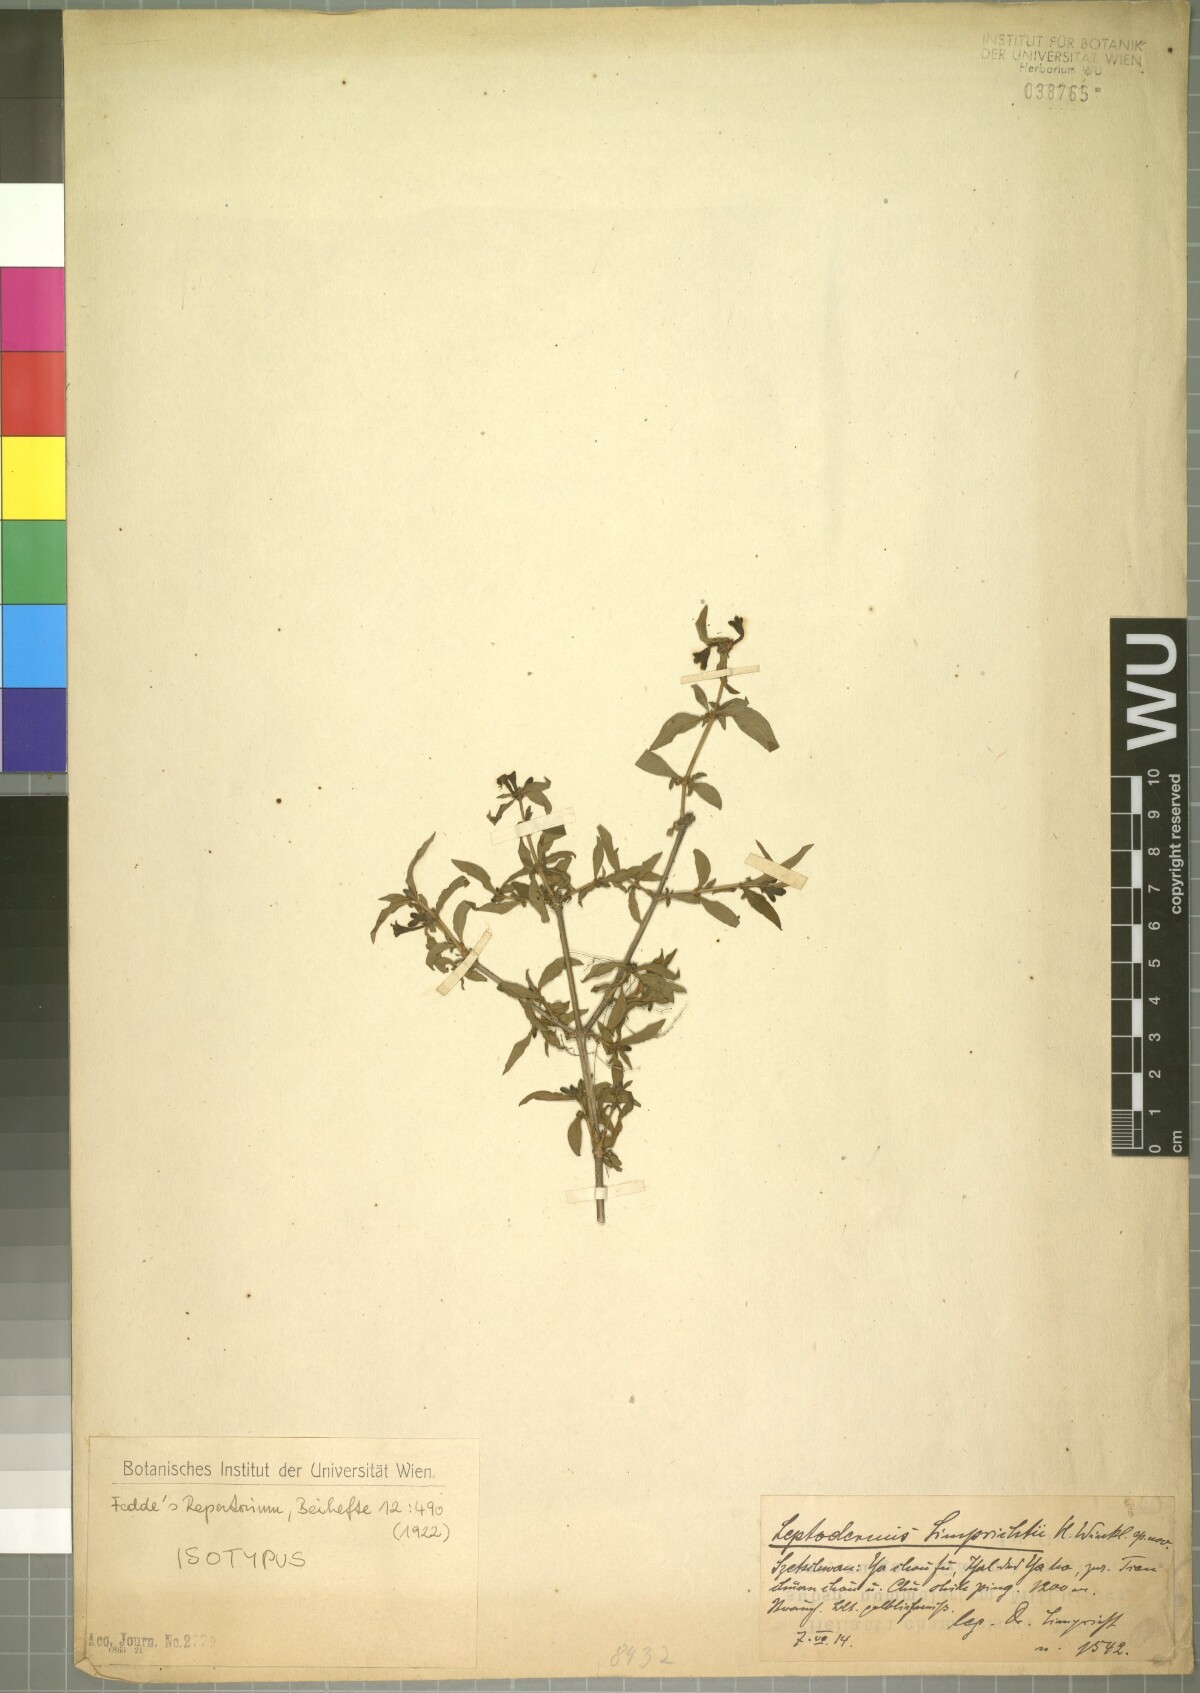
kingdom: Plantae
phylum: Tracheophyta
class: Magnoliopsida
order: Gentianales
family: Rubiaceae
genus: Leptodermis
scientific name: Leptodermis limprichtii
